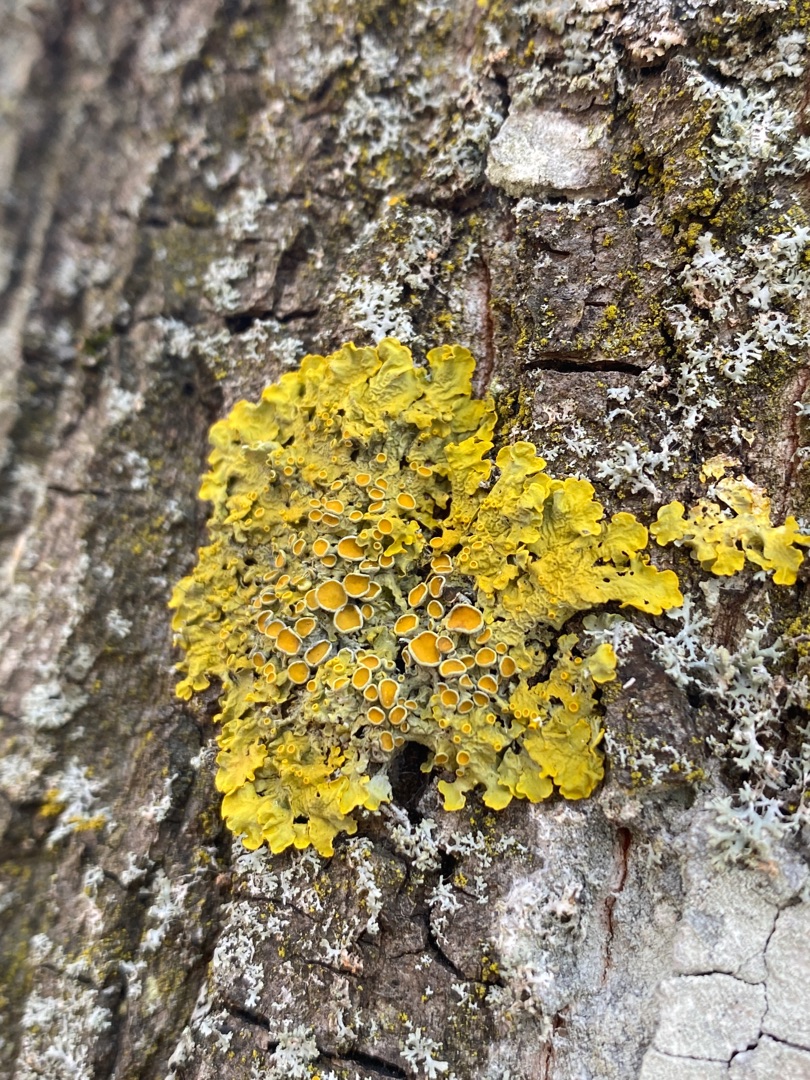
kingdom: Fungi
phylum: Ascomycota
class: Lecanoromycetes
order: Teloschistales
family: Teloschistaceae
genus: Xanthoria
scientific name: Xanthoria parietina
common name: Almindelig væggelav
